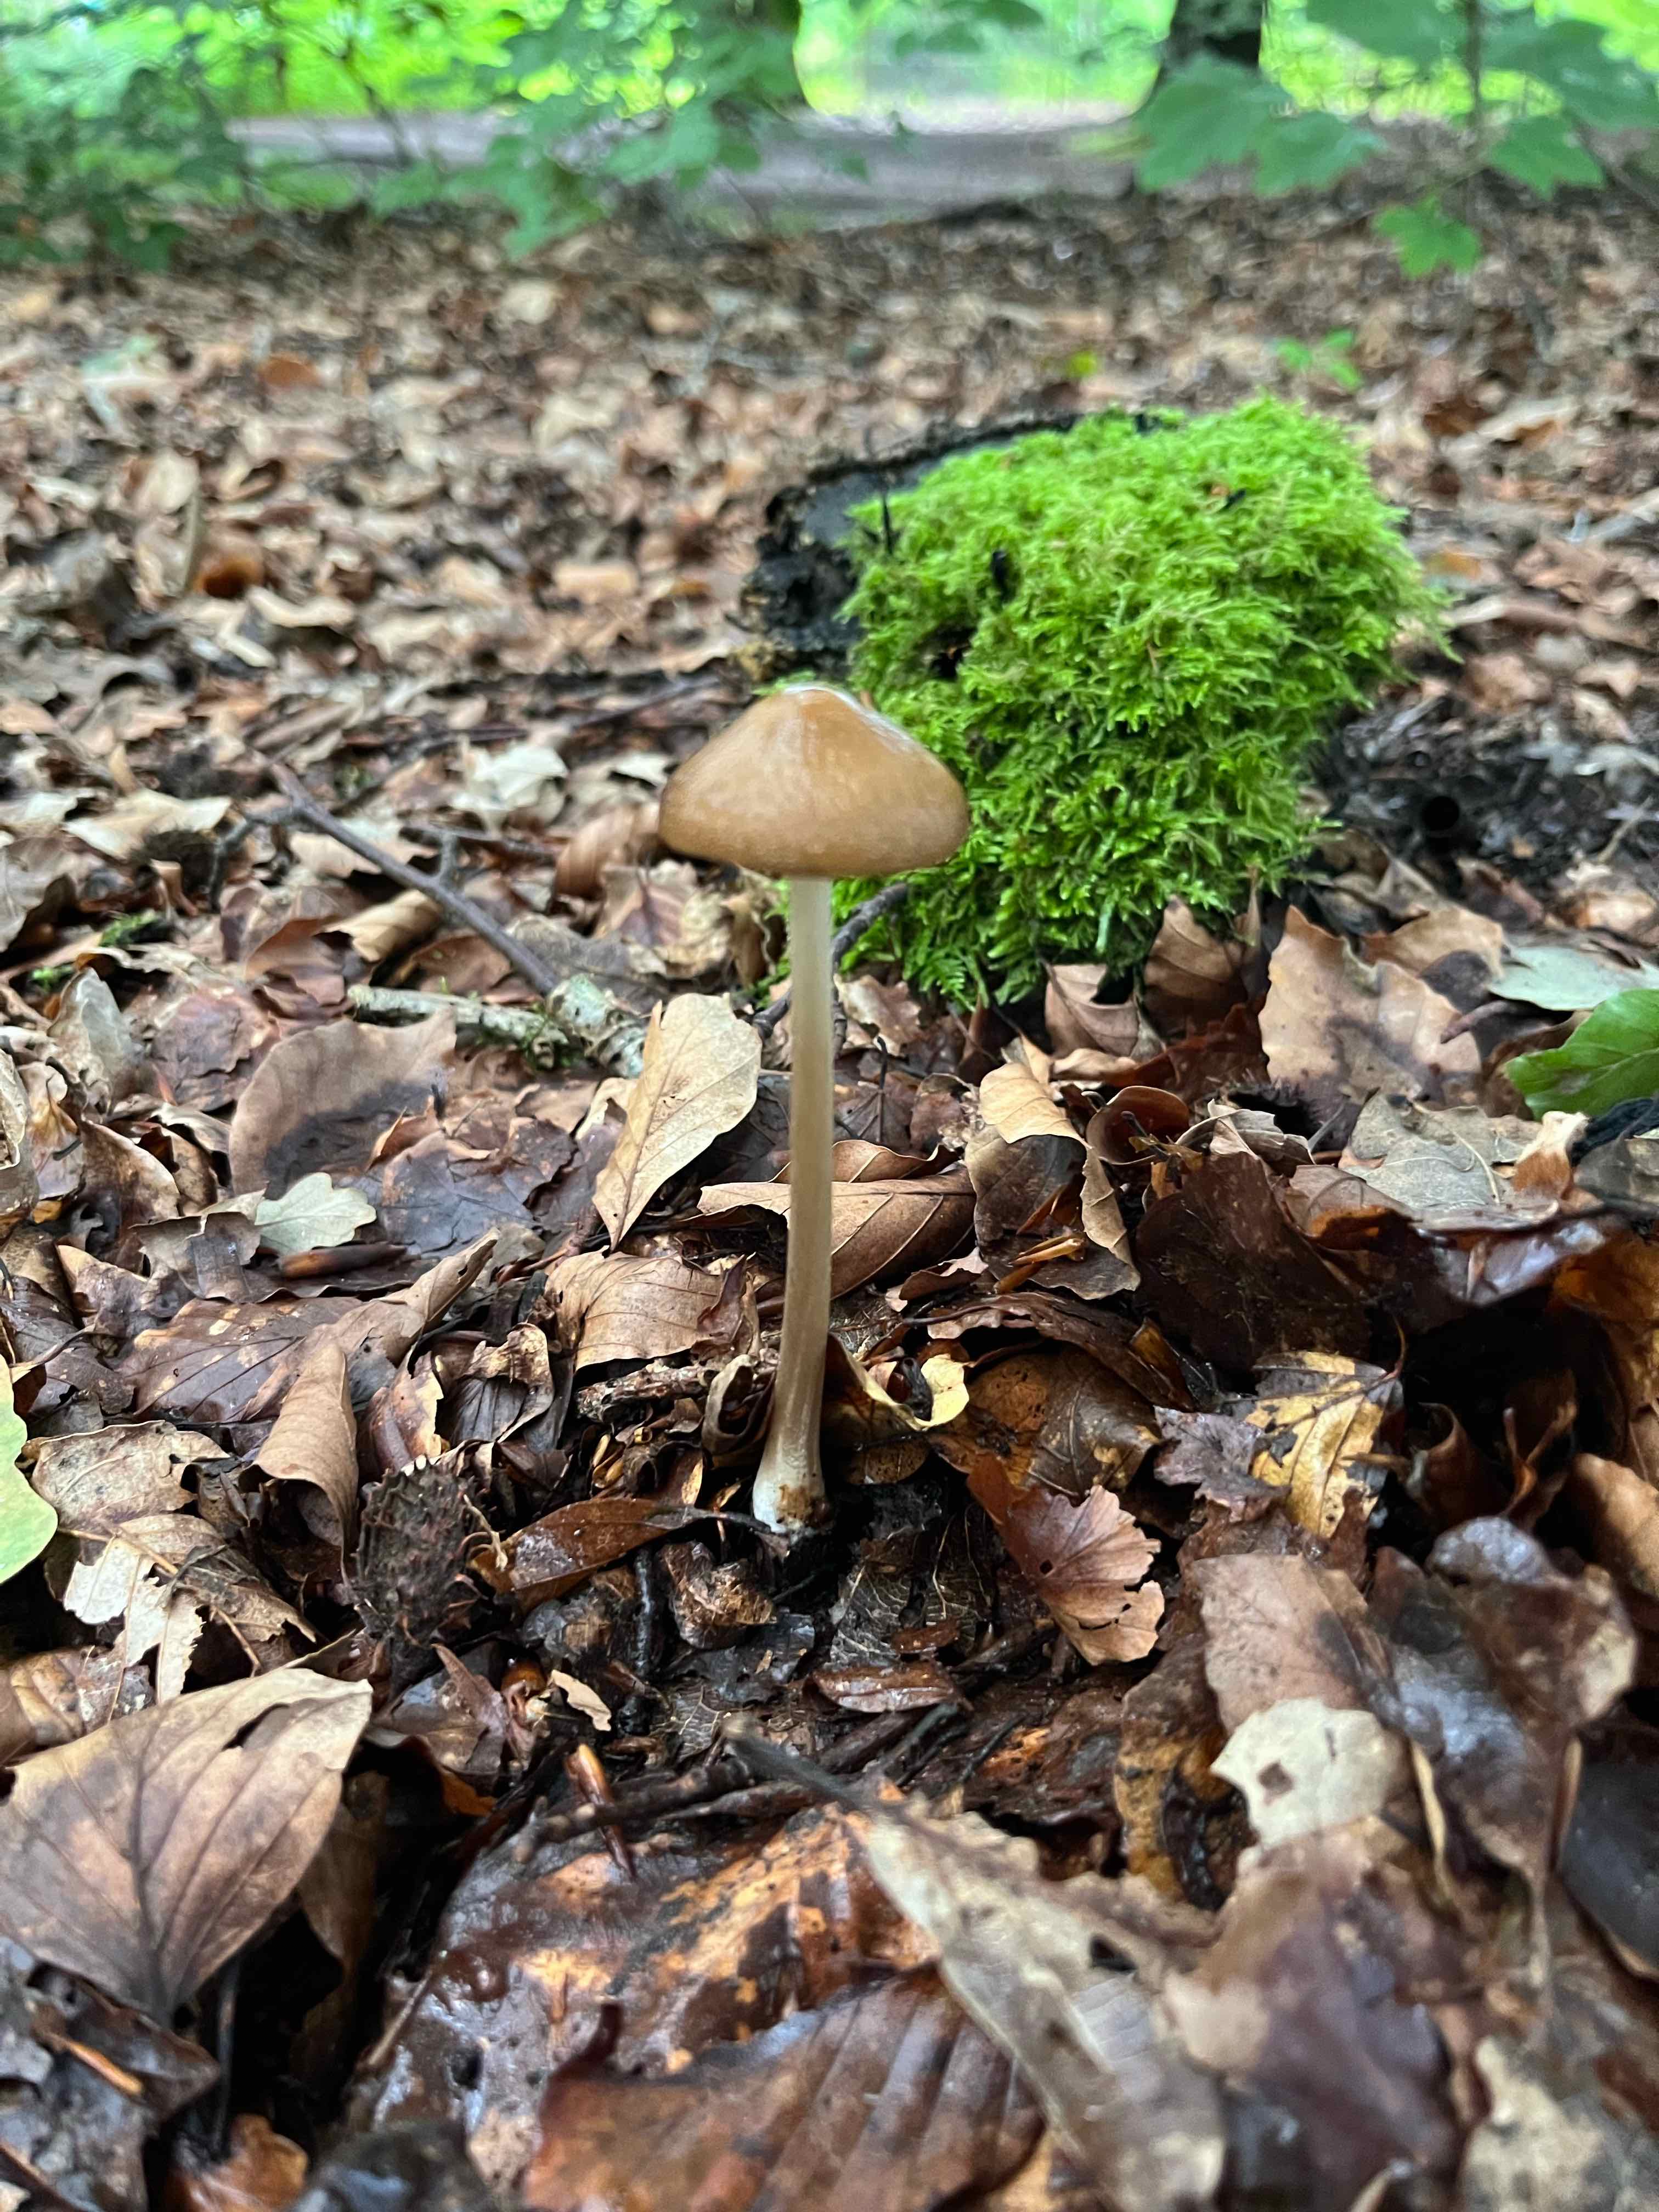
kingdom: Fungi
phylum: Basidiomycota
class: Agaricomycetes
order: Agaricales
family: Physalacriaceae
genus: Hymenopellis
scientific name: Hymenopellis radicata
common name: almindelig pælerodshat
